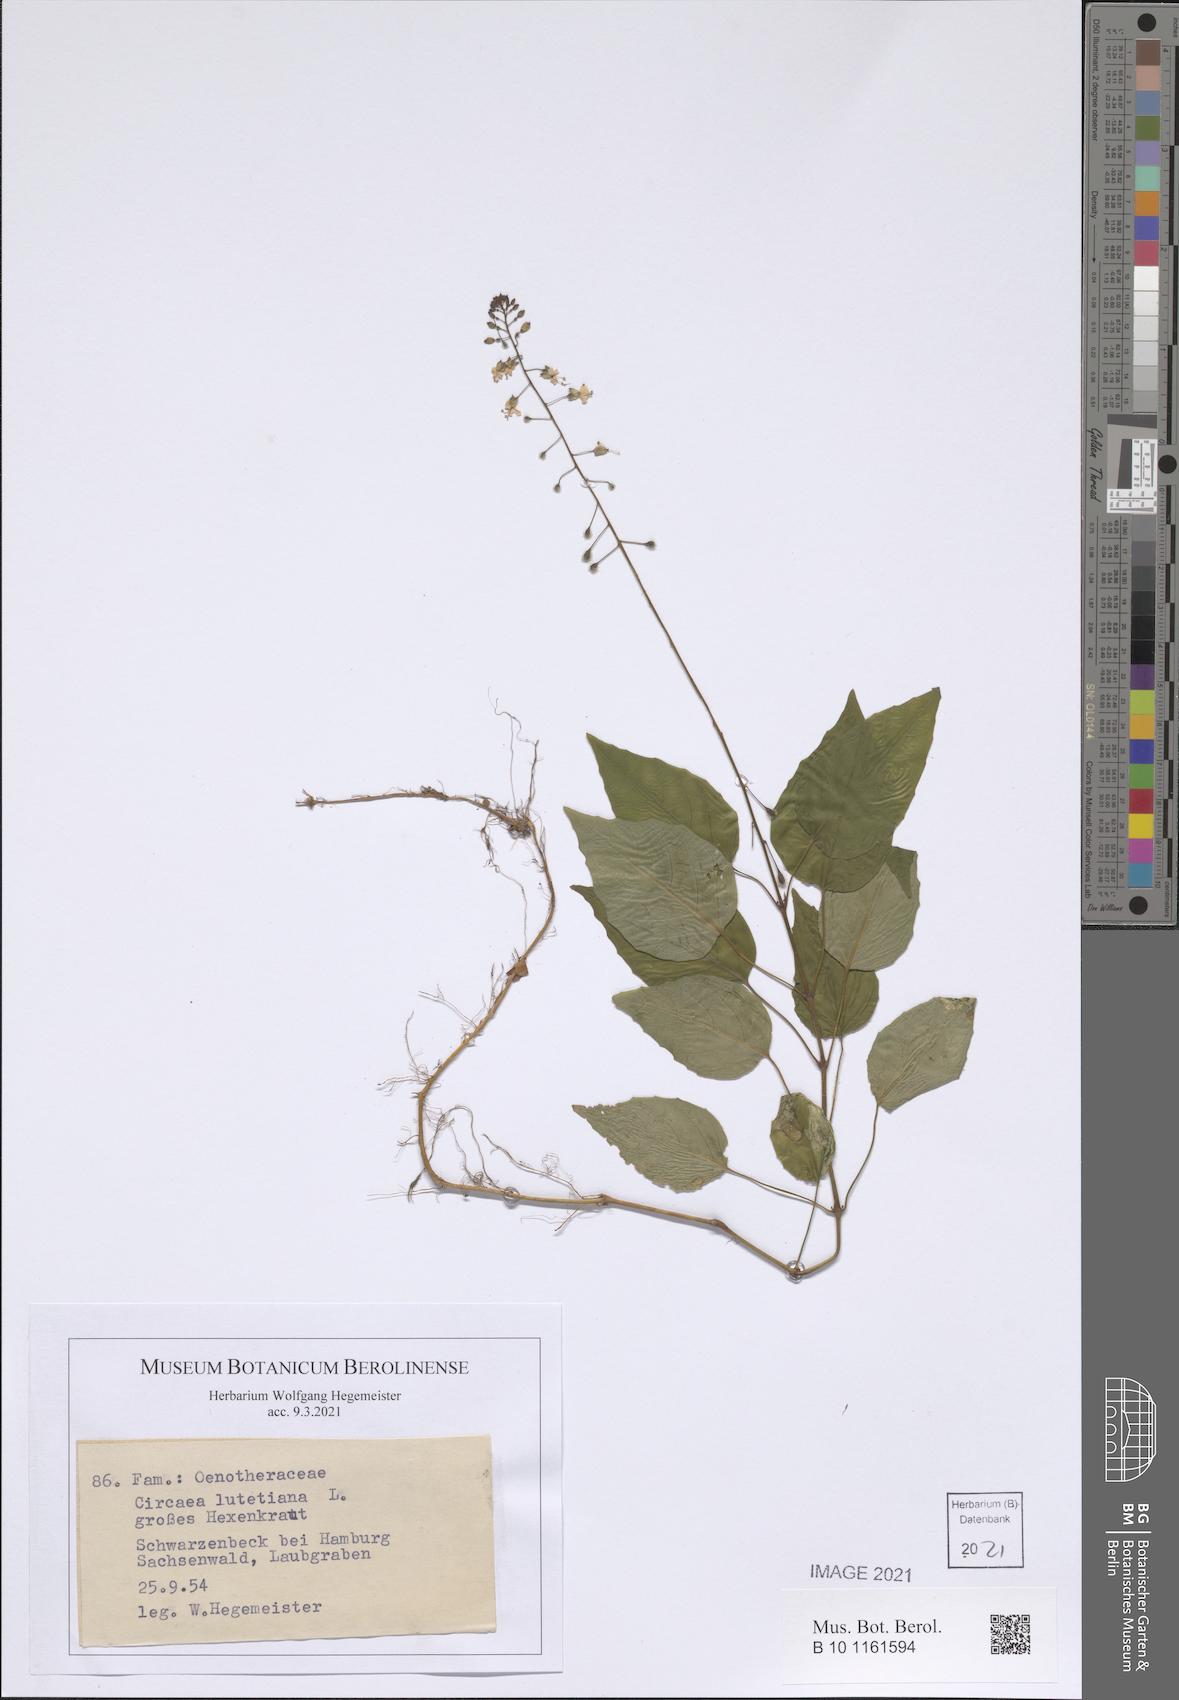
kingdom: Plantae
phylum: Tracheophyta
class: Magnoliopsida
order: Myrtales
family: Onagraceae
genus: Circaea
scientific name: Circaea lutetiana
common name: Enchanter's-nightshade
